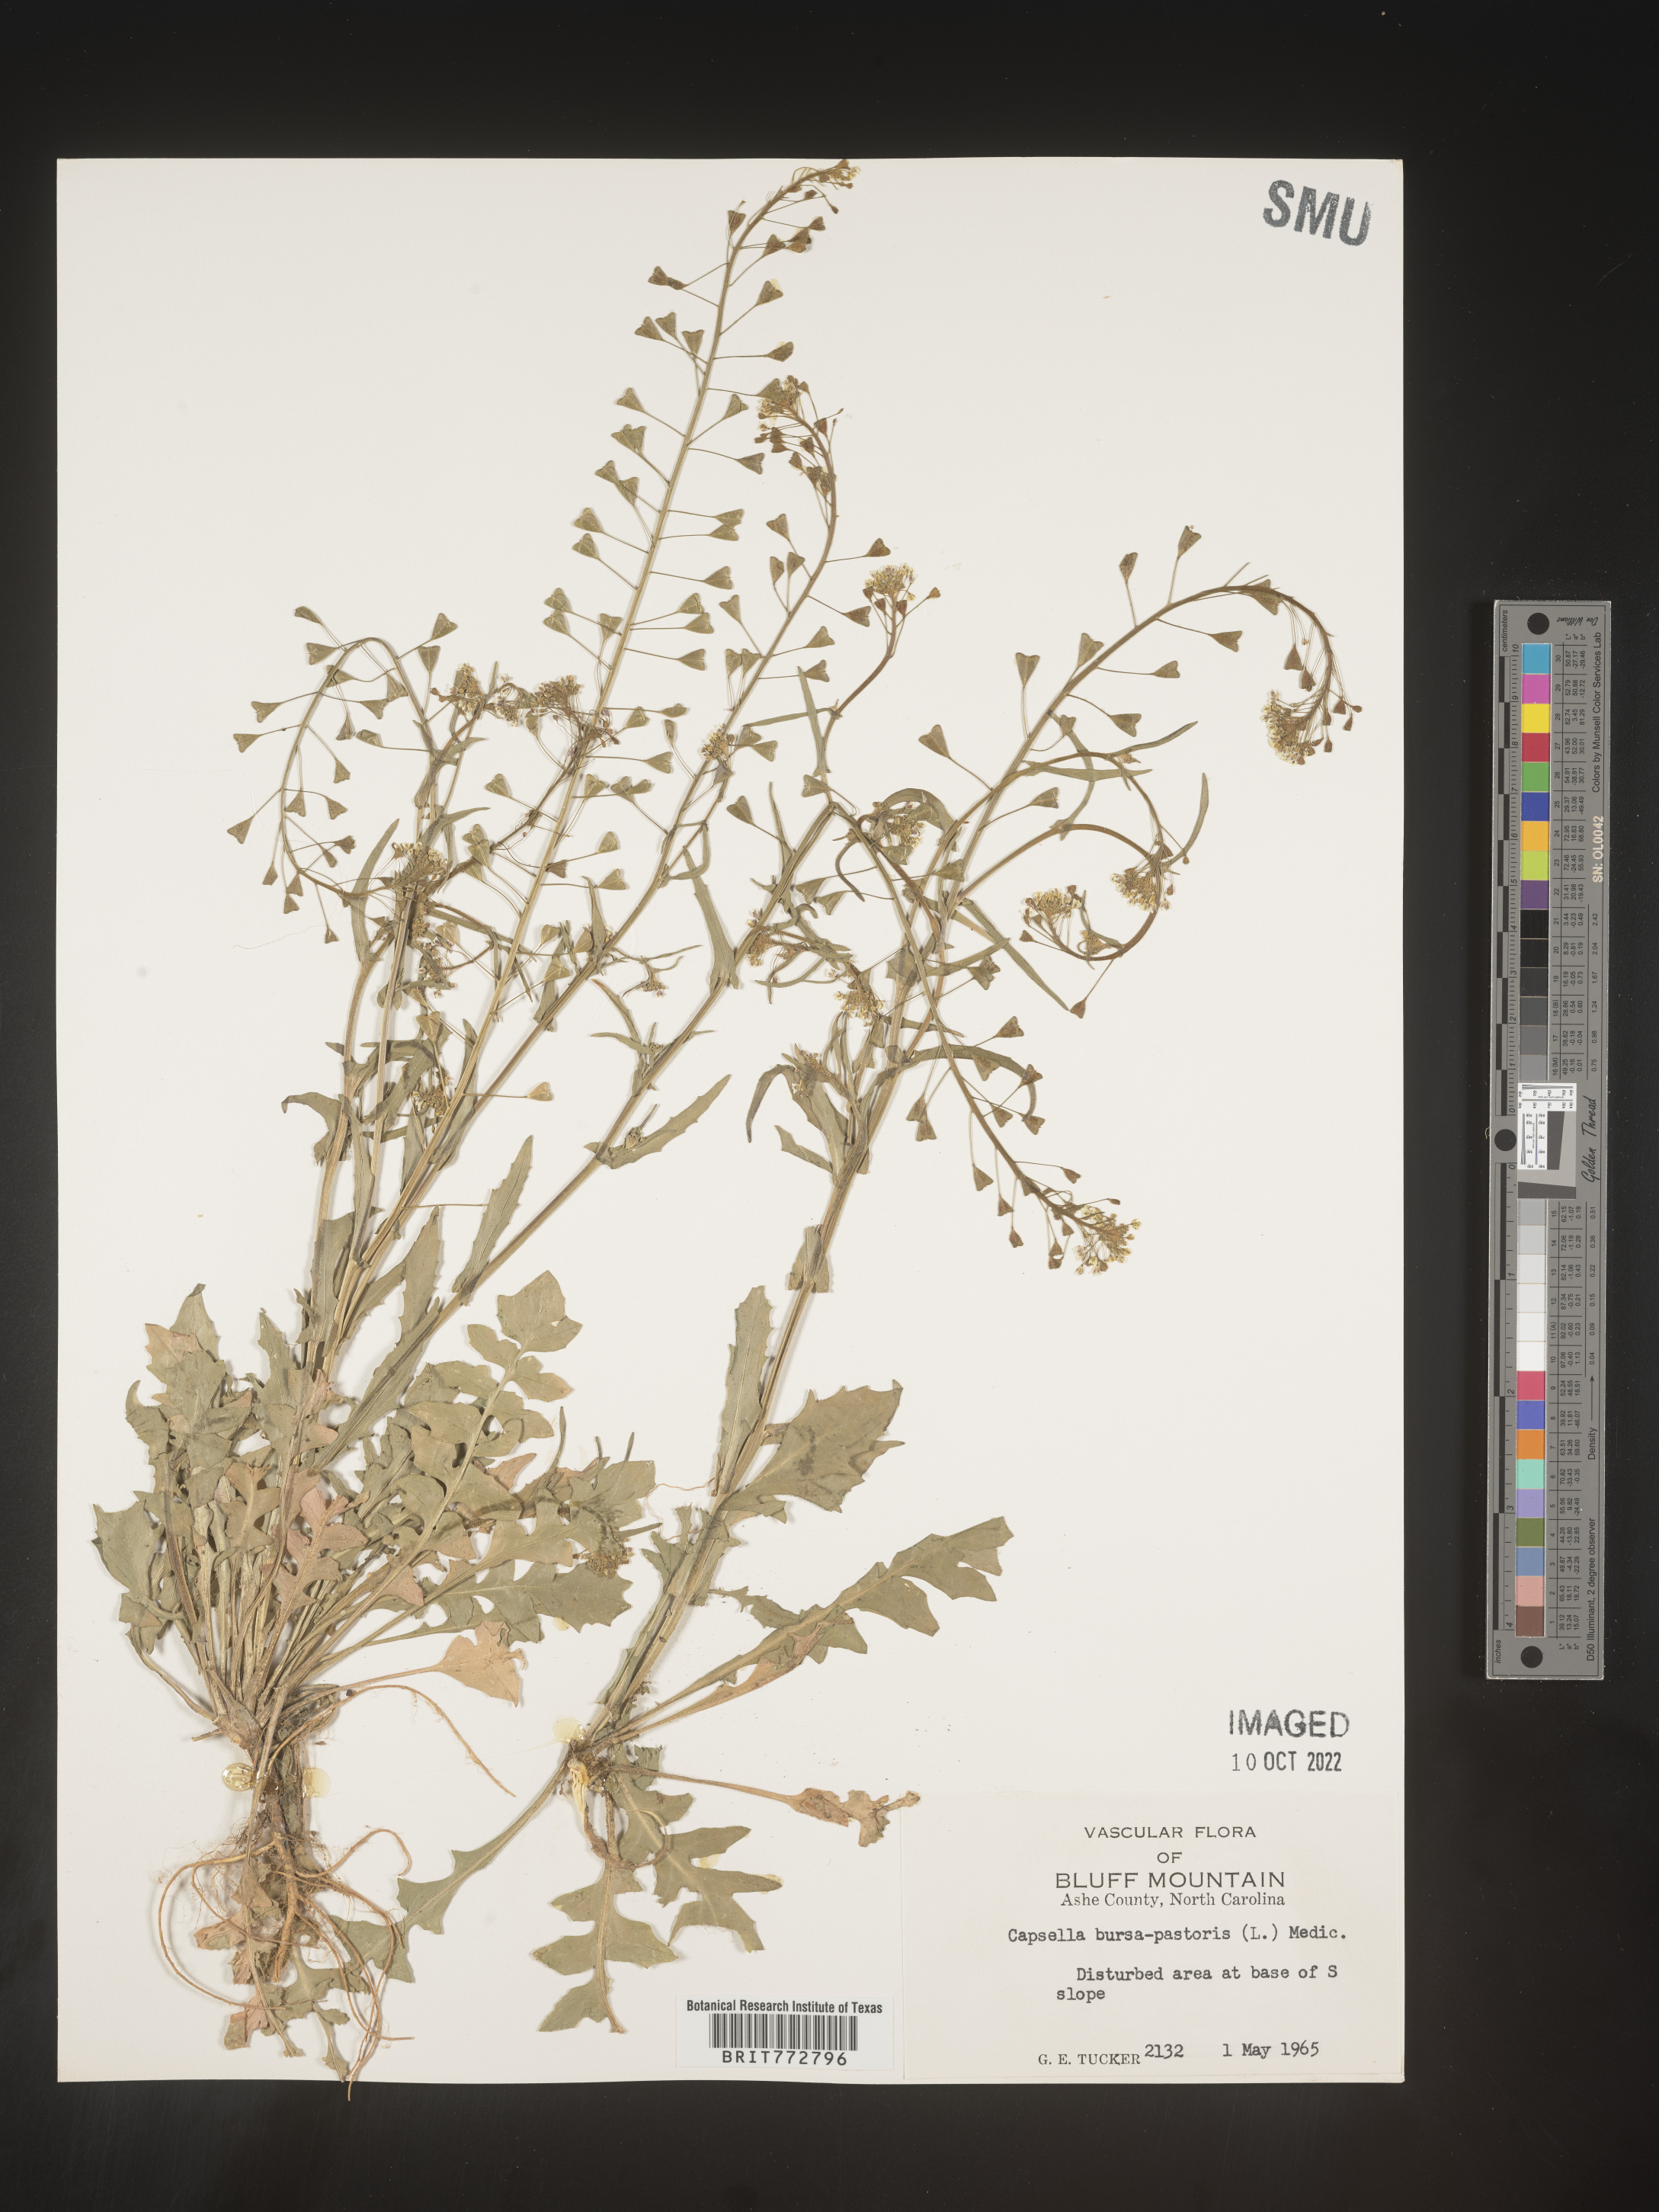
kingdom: Plantae
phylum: Tracheophyta
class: Magnoliopsida
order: Brassicales
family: Brassicaceae
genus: Capsella
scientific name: Capsella bursa-pastoris
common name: Shepherd's purse
